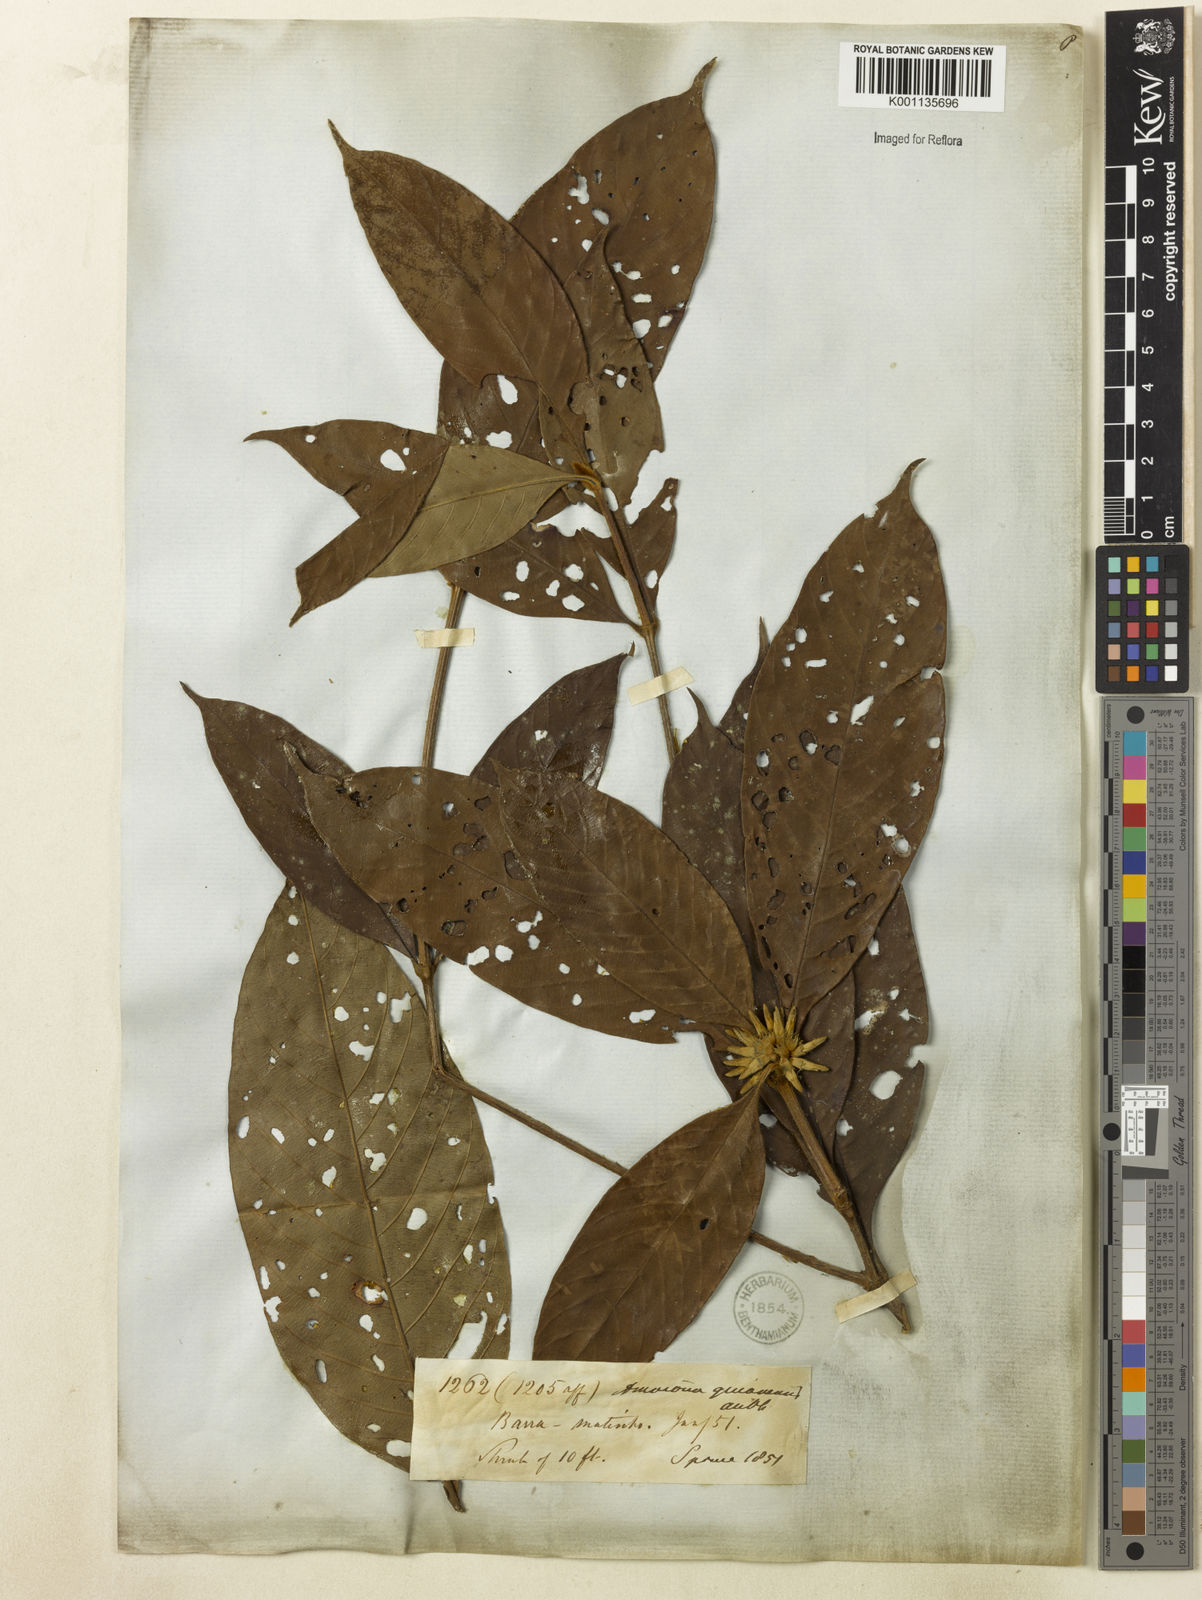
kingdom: Plantae
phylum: Tracheophyta
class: Magnoliopsida
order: Gentianales
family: Rubiaceae
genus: Amaioua
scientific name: Amaioua guianensis
